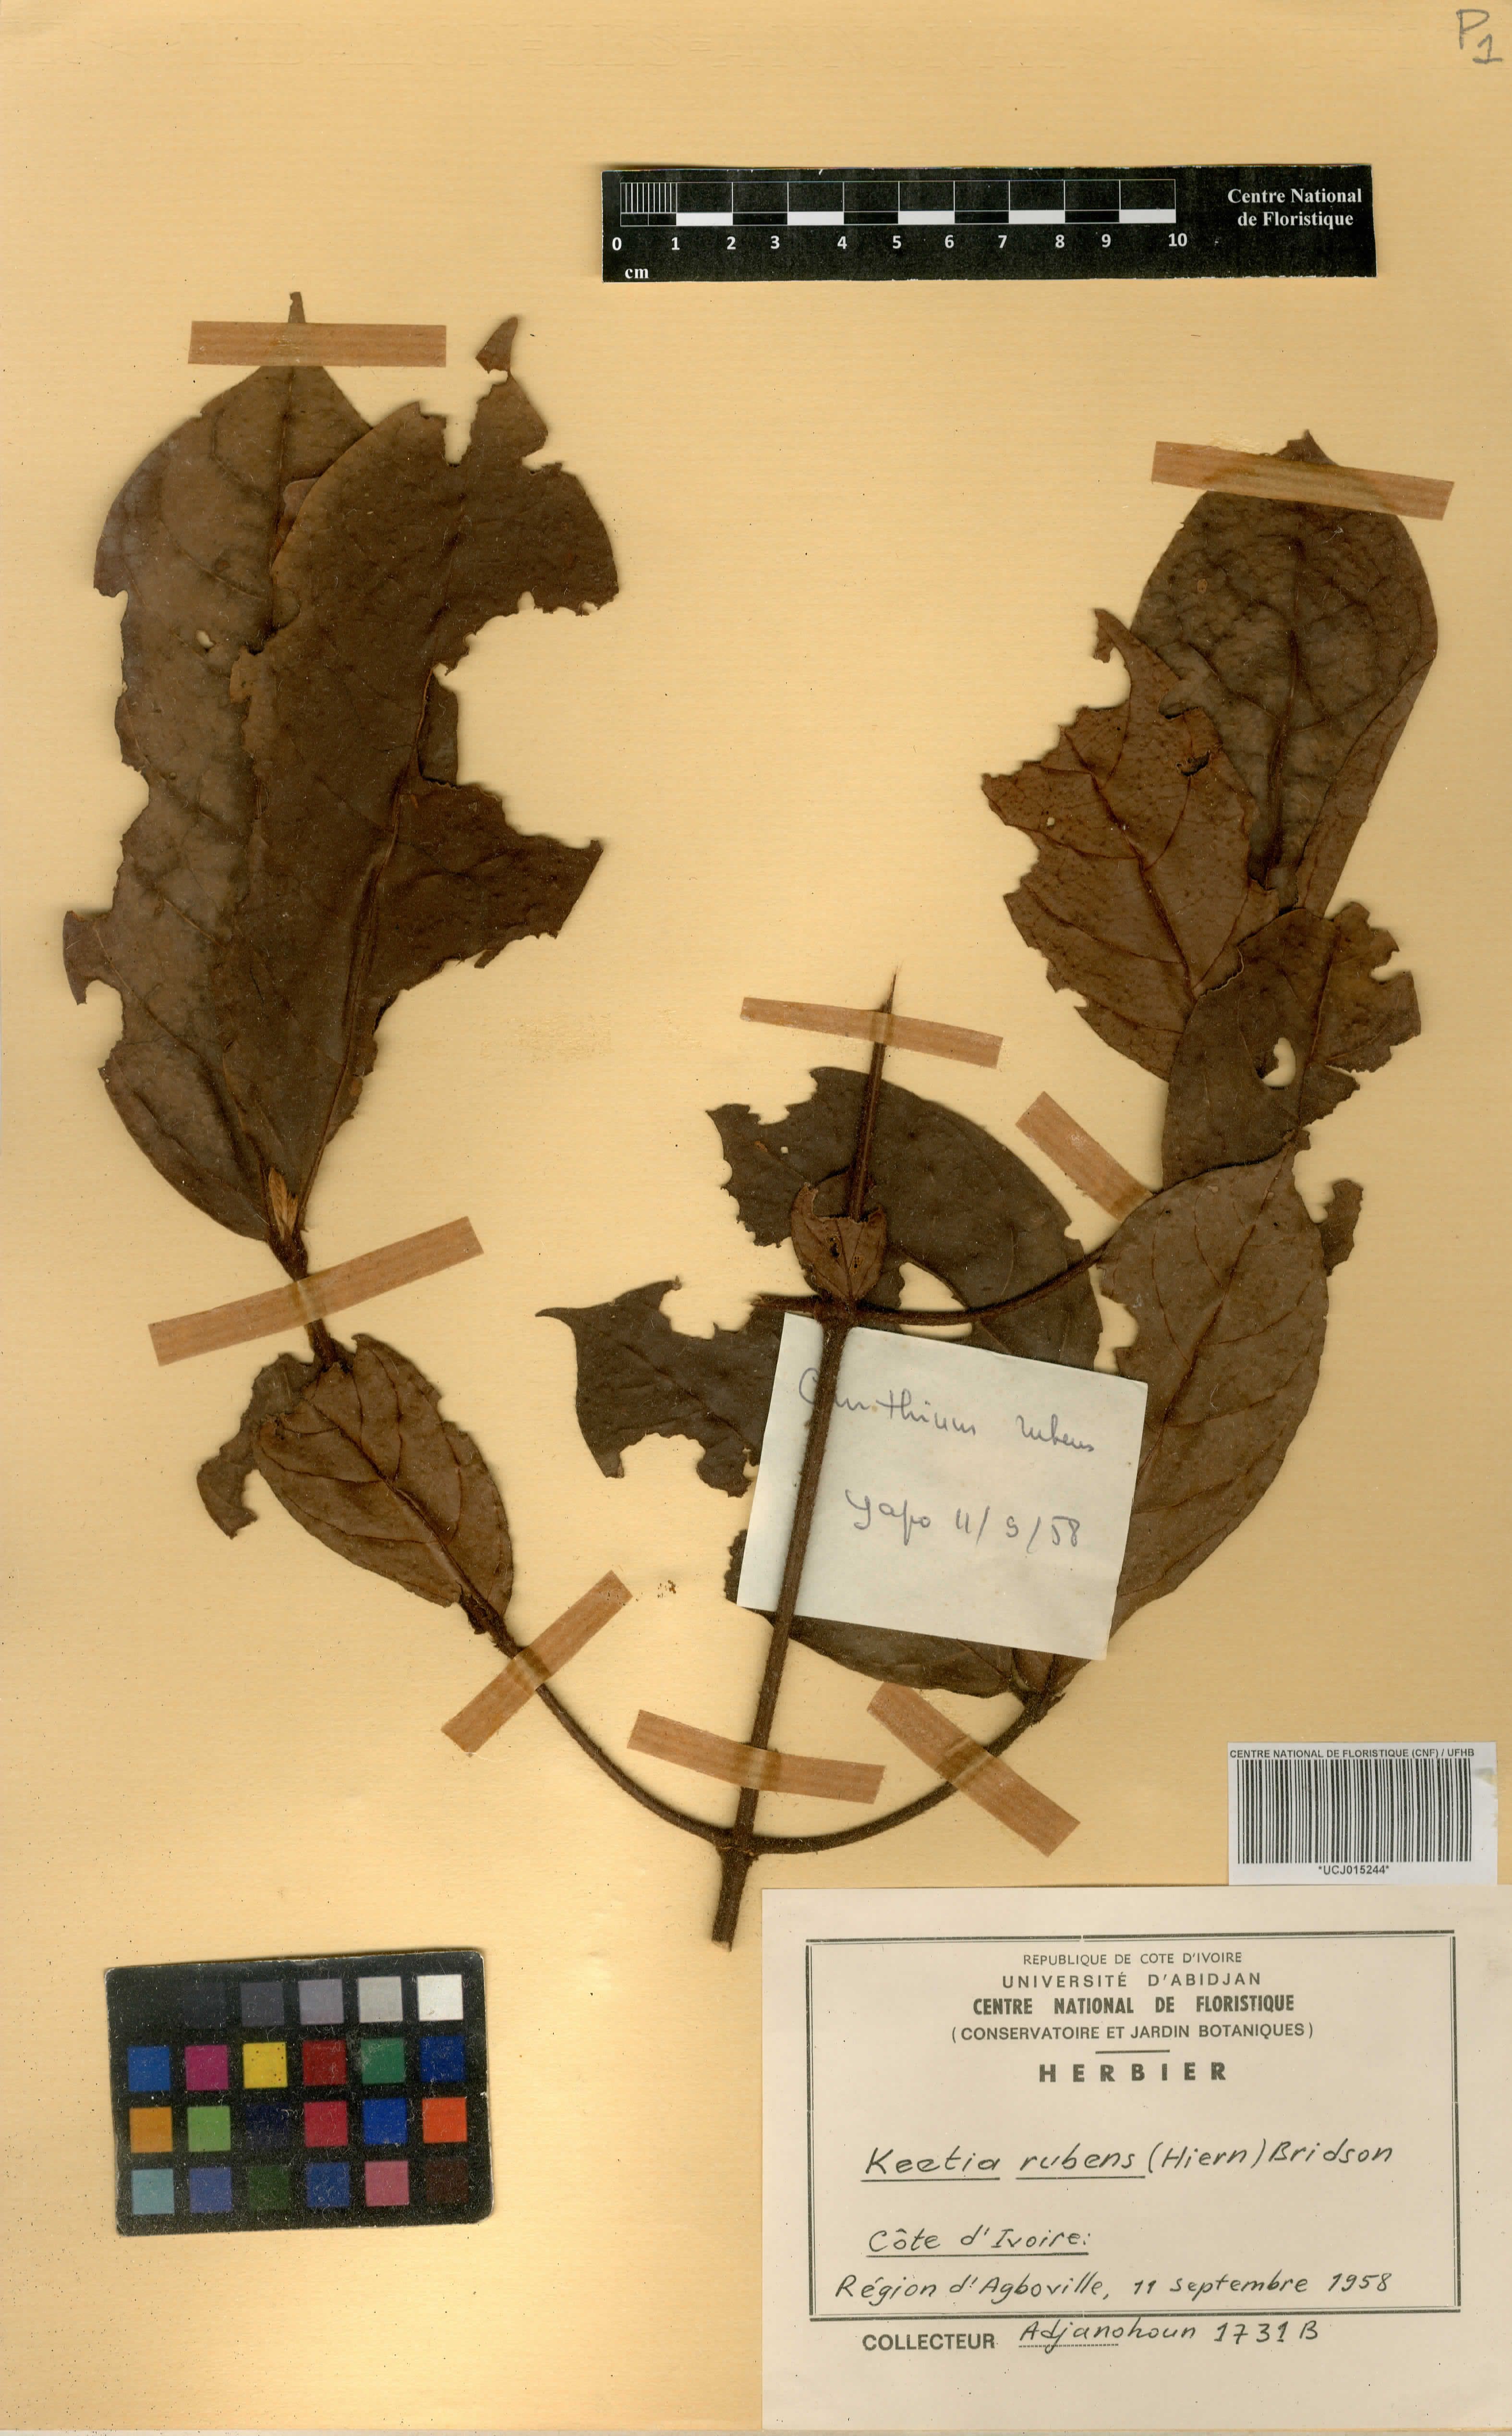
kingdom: Plantae
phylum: Tracheophyta
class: Magnoliopsida
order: Gentianales
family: Rubiaceae
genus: Keetia
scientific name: Keetia rubens
